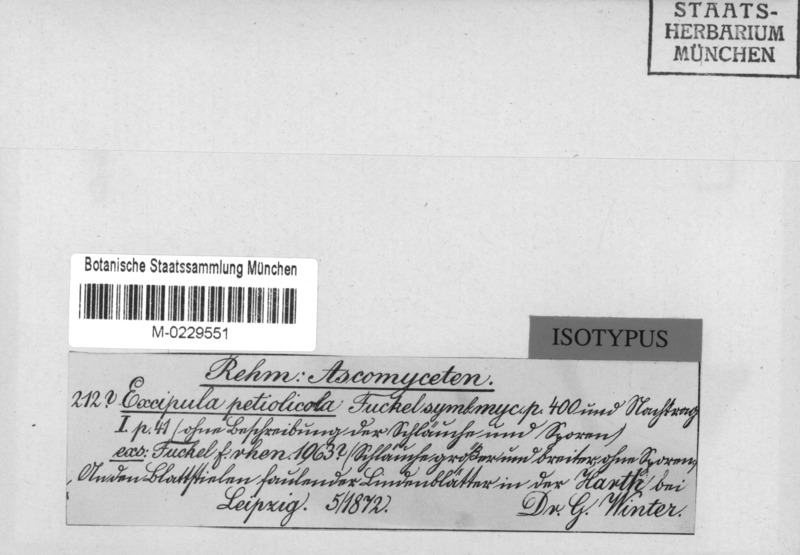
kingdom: Fungi
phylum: Ascomycota
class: Leotiomycetes
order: Helotiales
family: Ploettnerulaceae
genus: Hysteropeziza
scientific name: Hysteropeziza petiolicola
